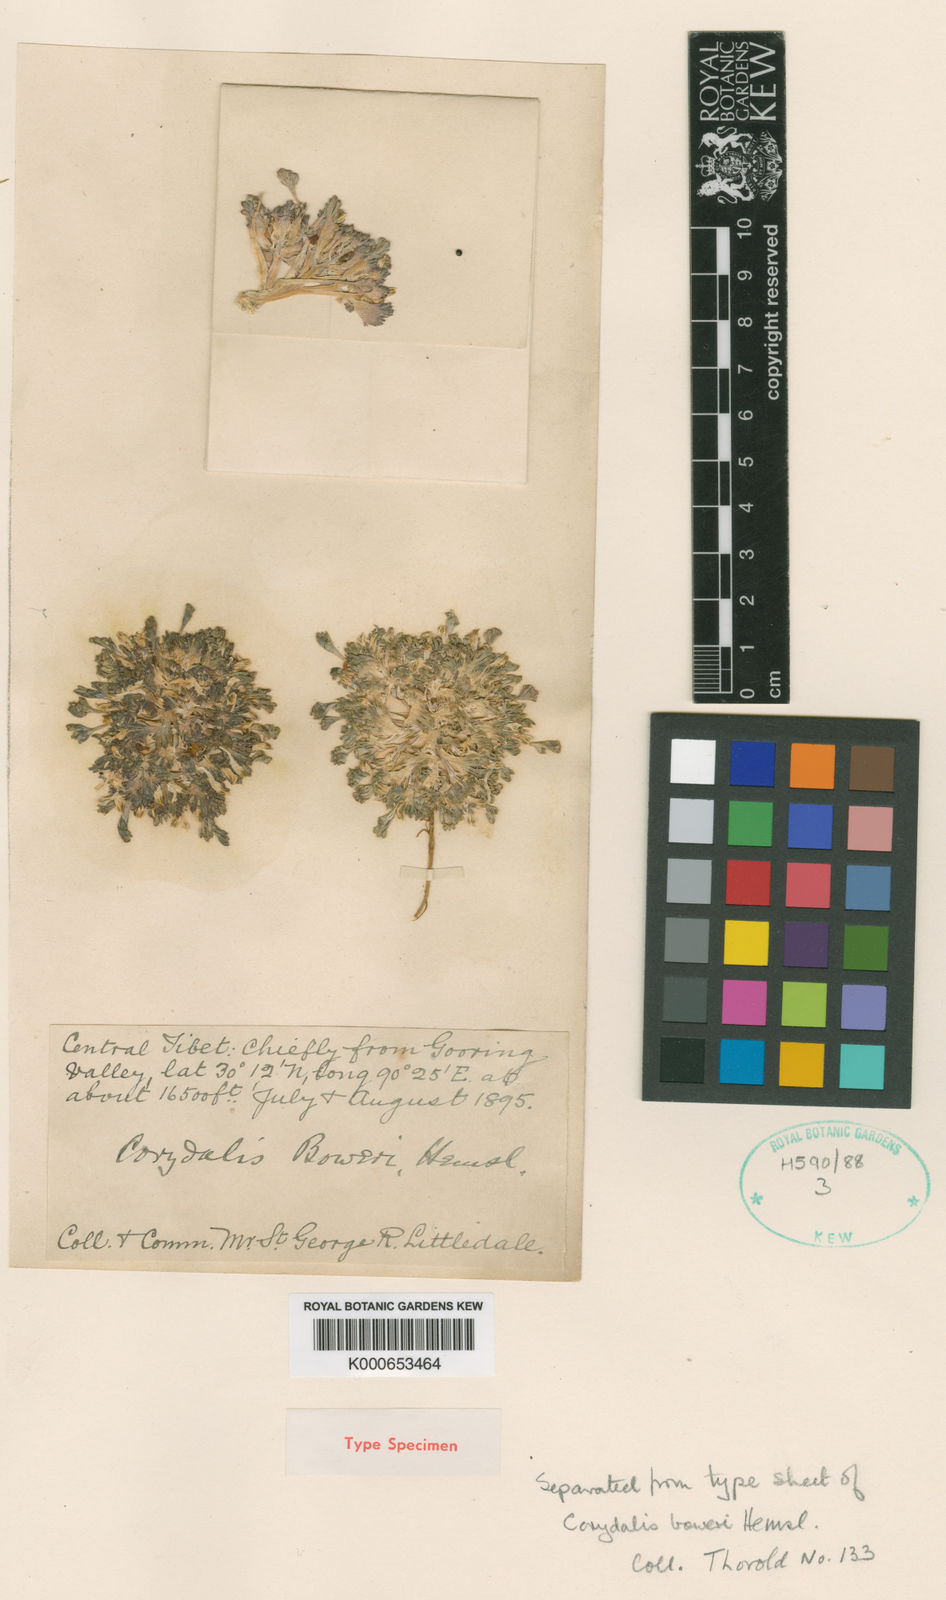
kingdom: Plantae
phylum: Tracheophyta
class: Magnoliopsida
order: Ranunculales
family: Papaveraceae
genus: Corydalis
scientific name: Corydalis mucronifera
